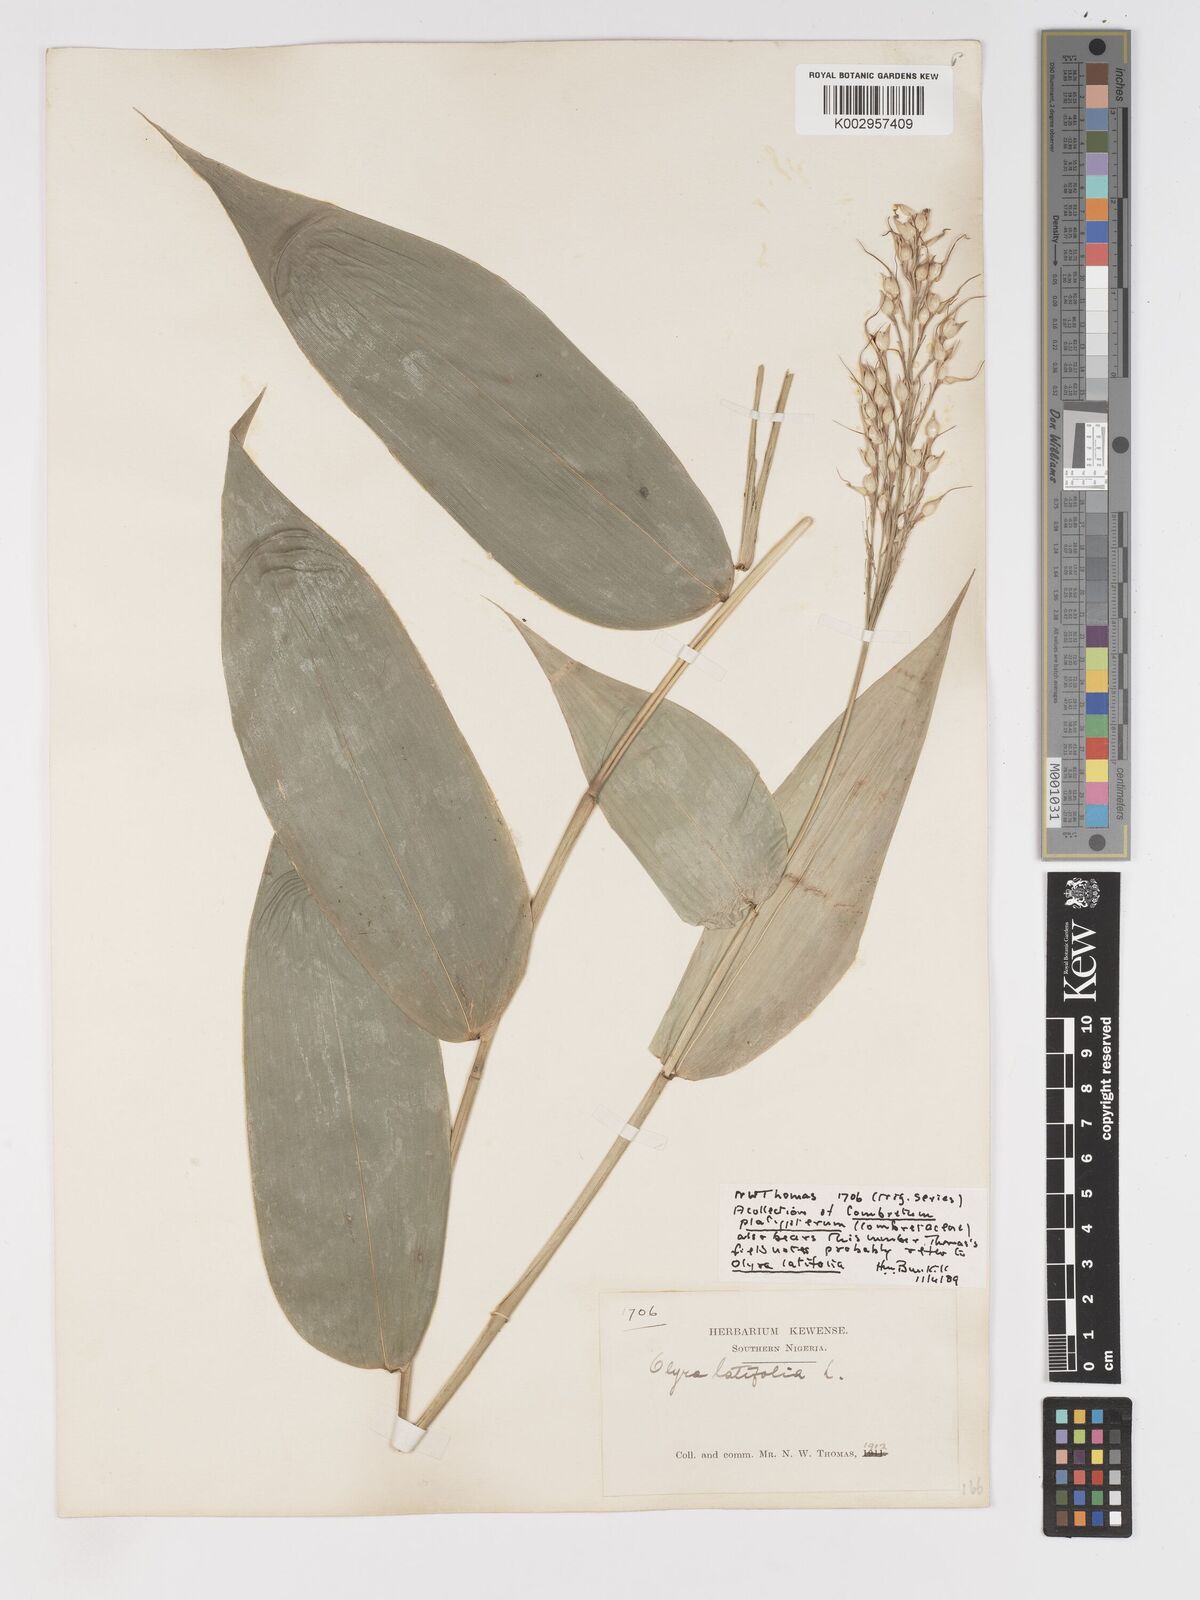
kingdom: Plantae
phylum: Tracheophyta
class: Liliopsida
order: Poales
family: Poaceae
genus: Olyra
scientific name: Olyra latifolia
